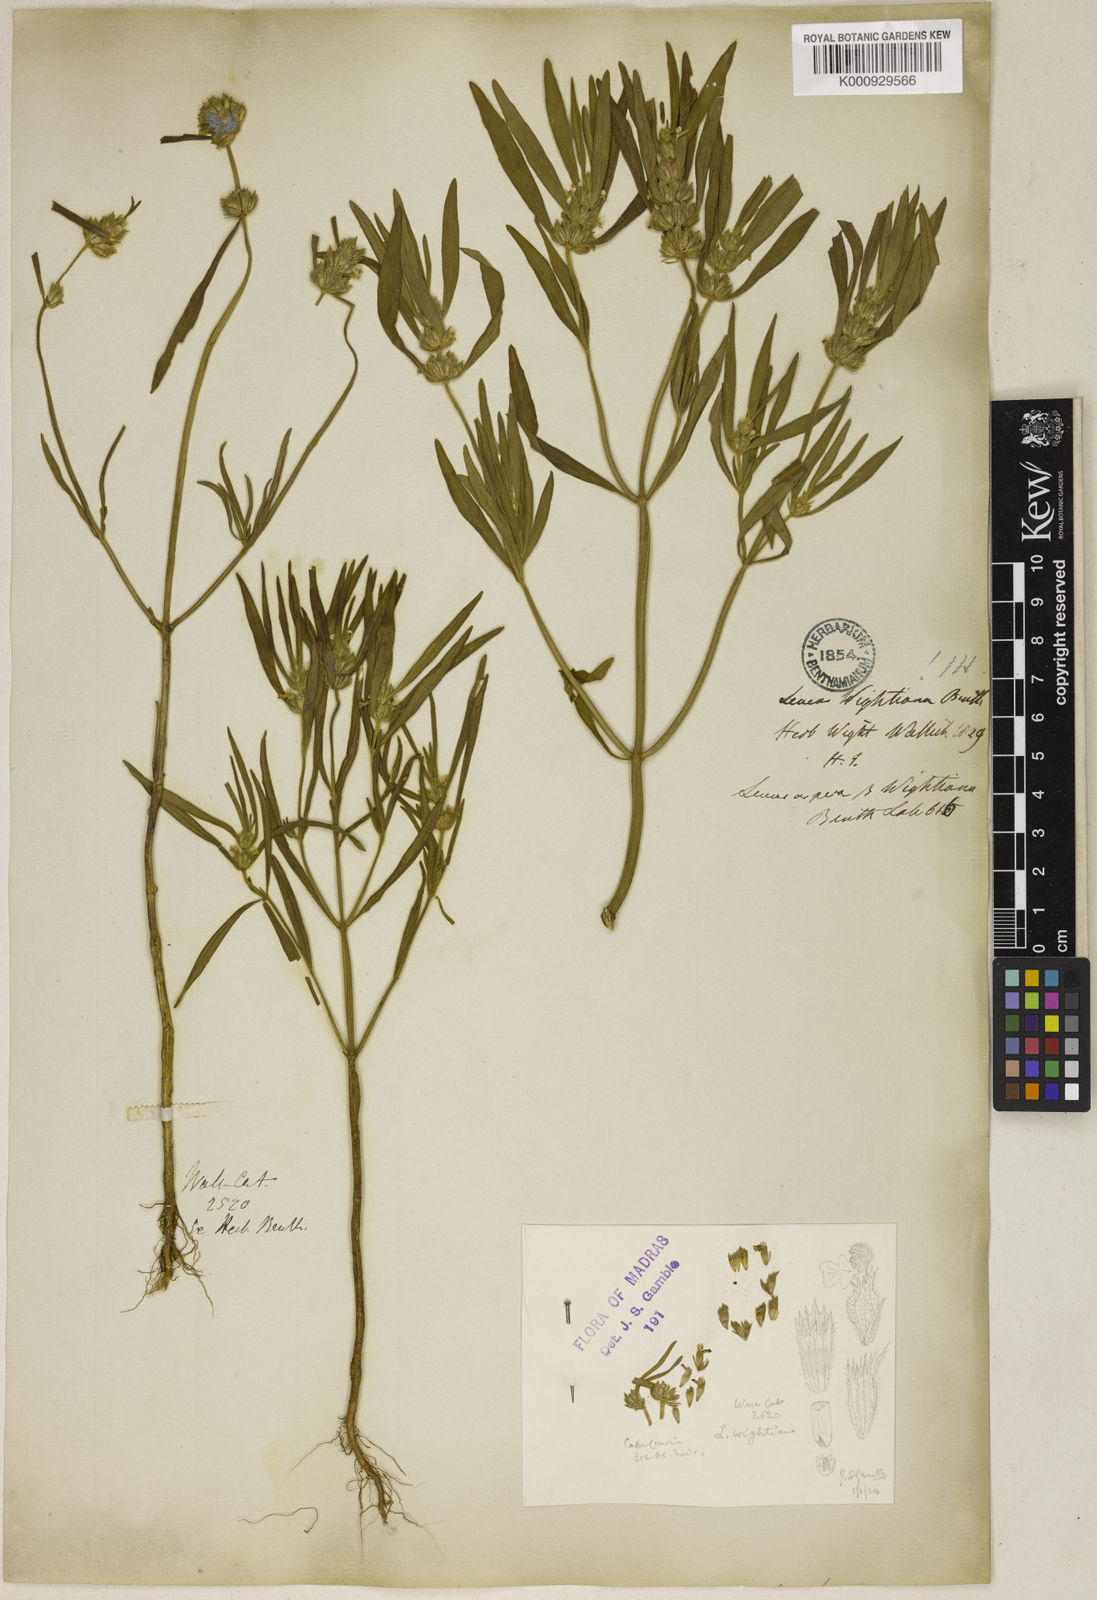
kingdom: Plantae
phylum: Tracheophyta
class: Magnoliopsida
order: Lamiales
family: Lamiaceae
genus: Leucas
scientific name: Leucas wightiana
